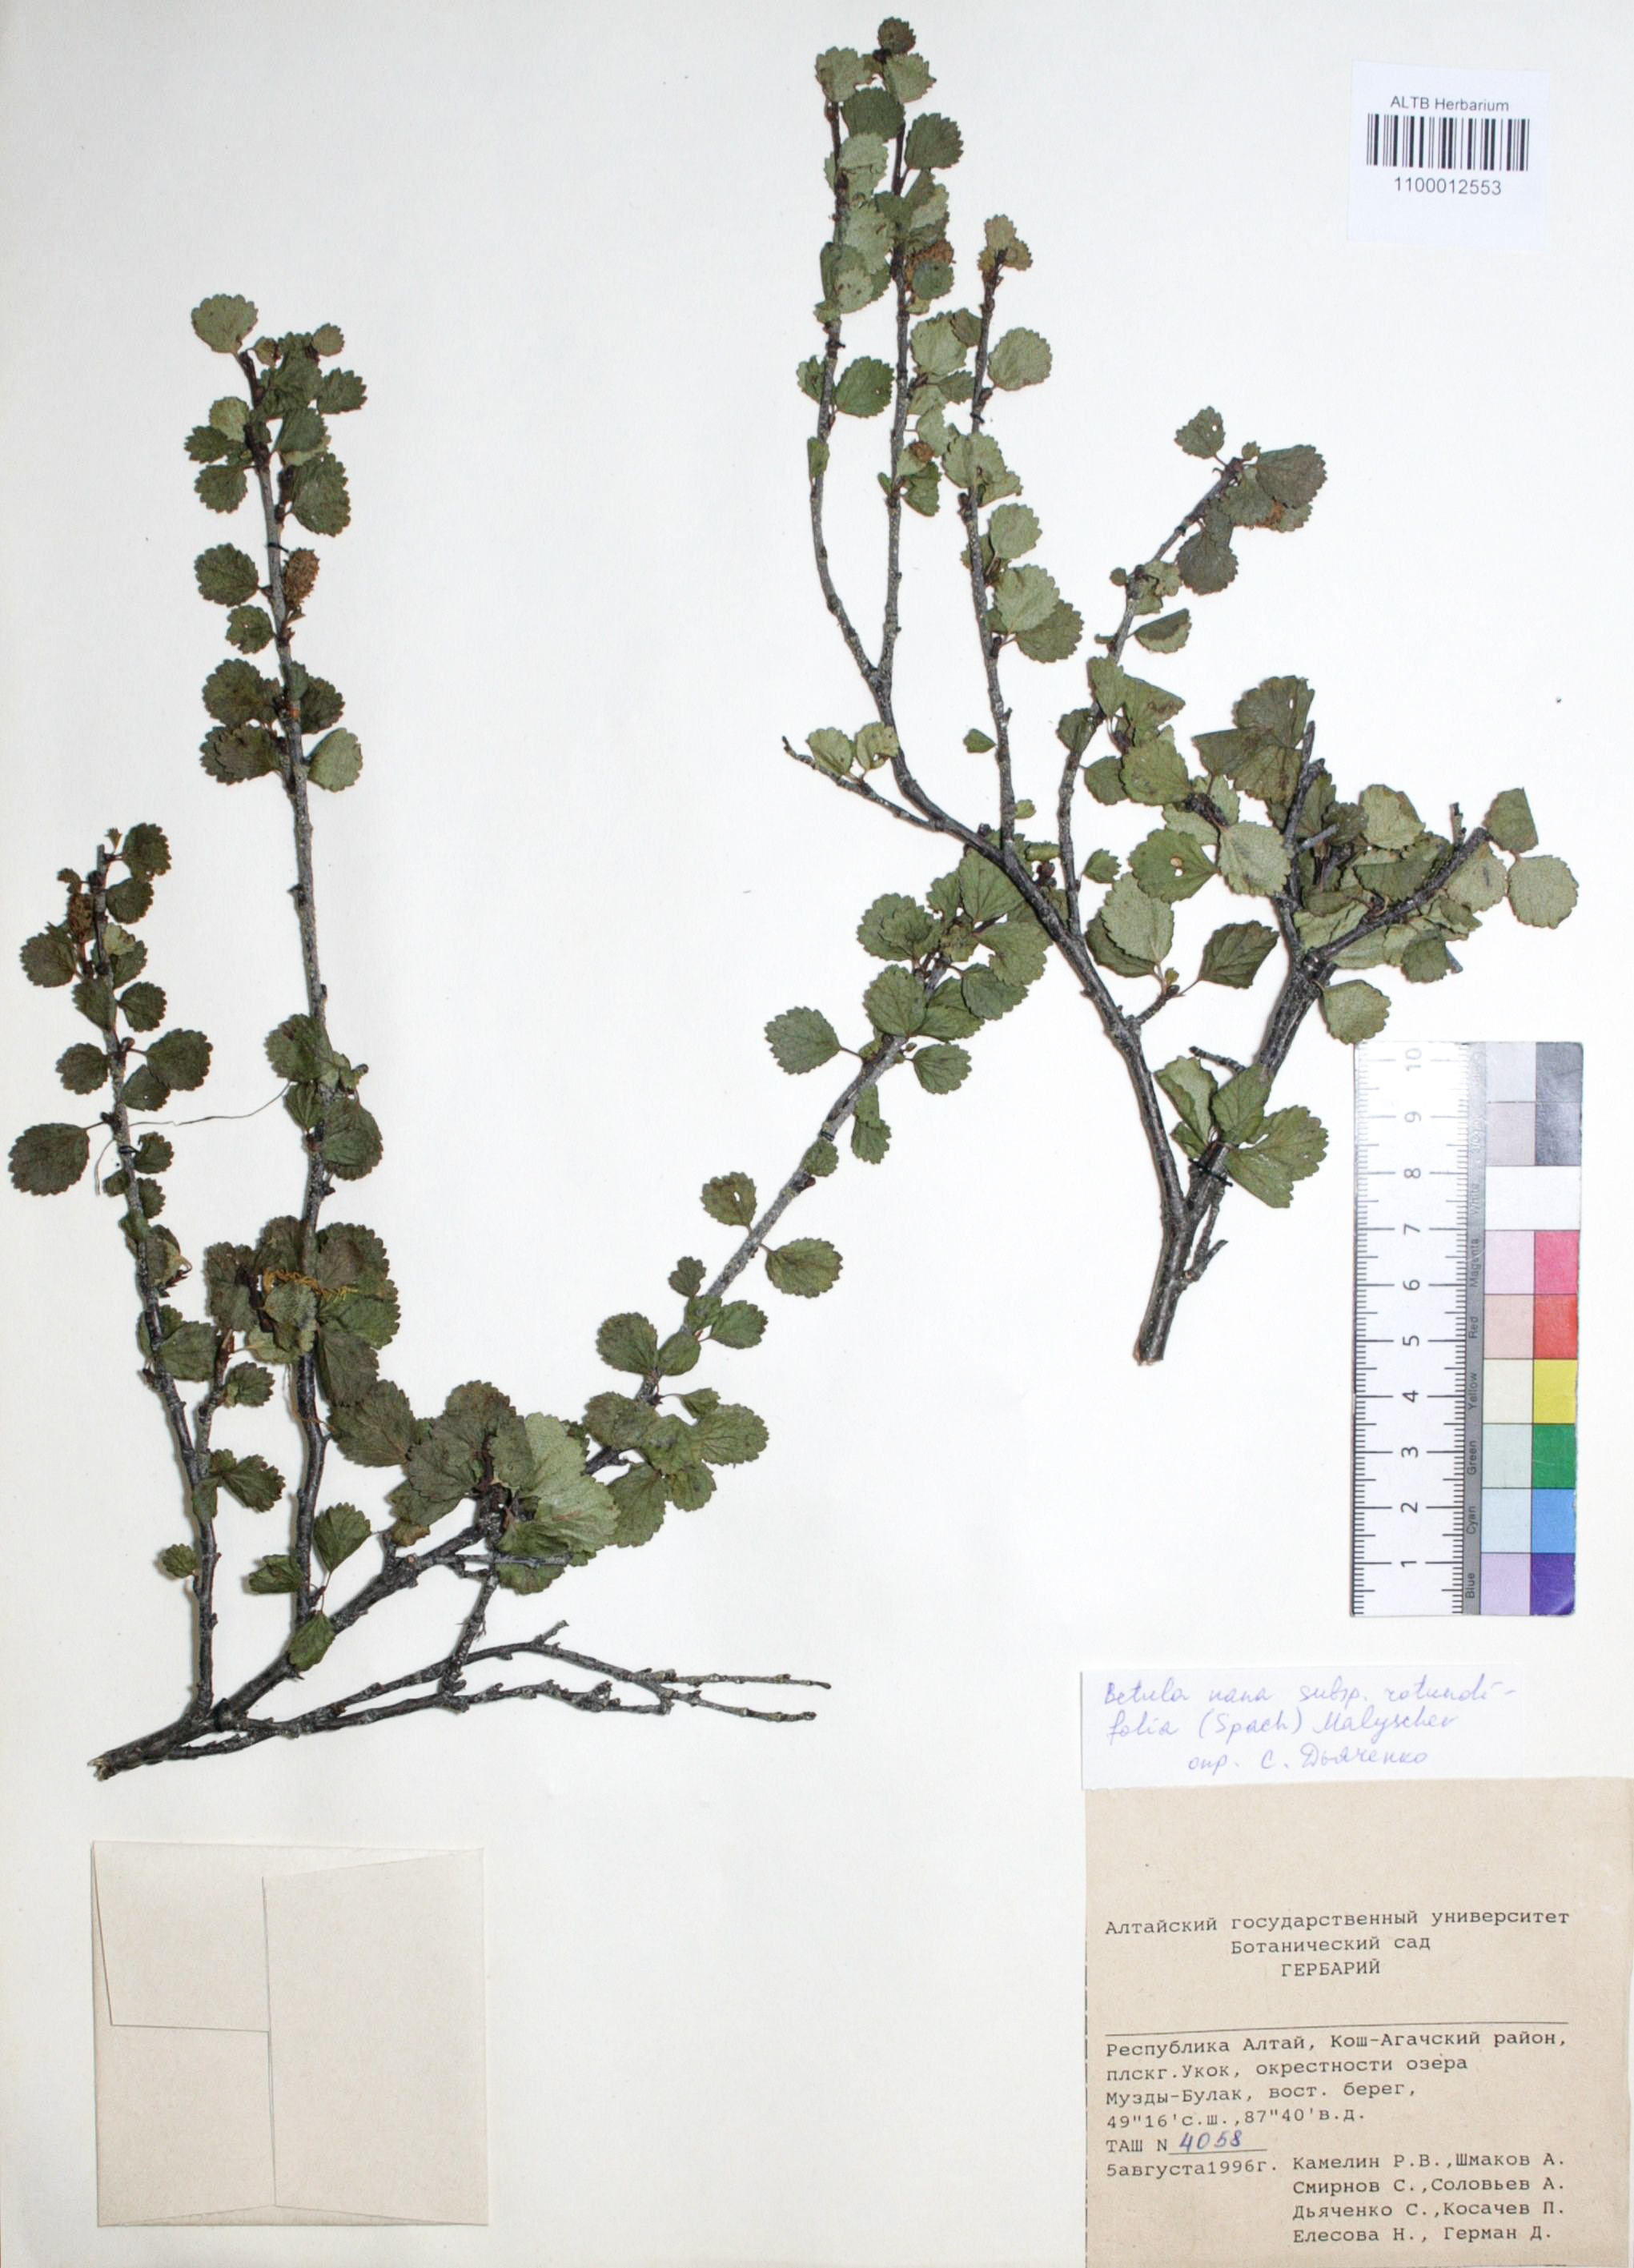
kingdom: Plantae
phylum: Tracheophyta
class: Magnoliopsida
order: Fagales
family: Betulaceae
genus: Betula
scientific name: Betula glandulosa
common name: Dwarf birch
